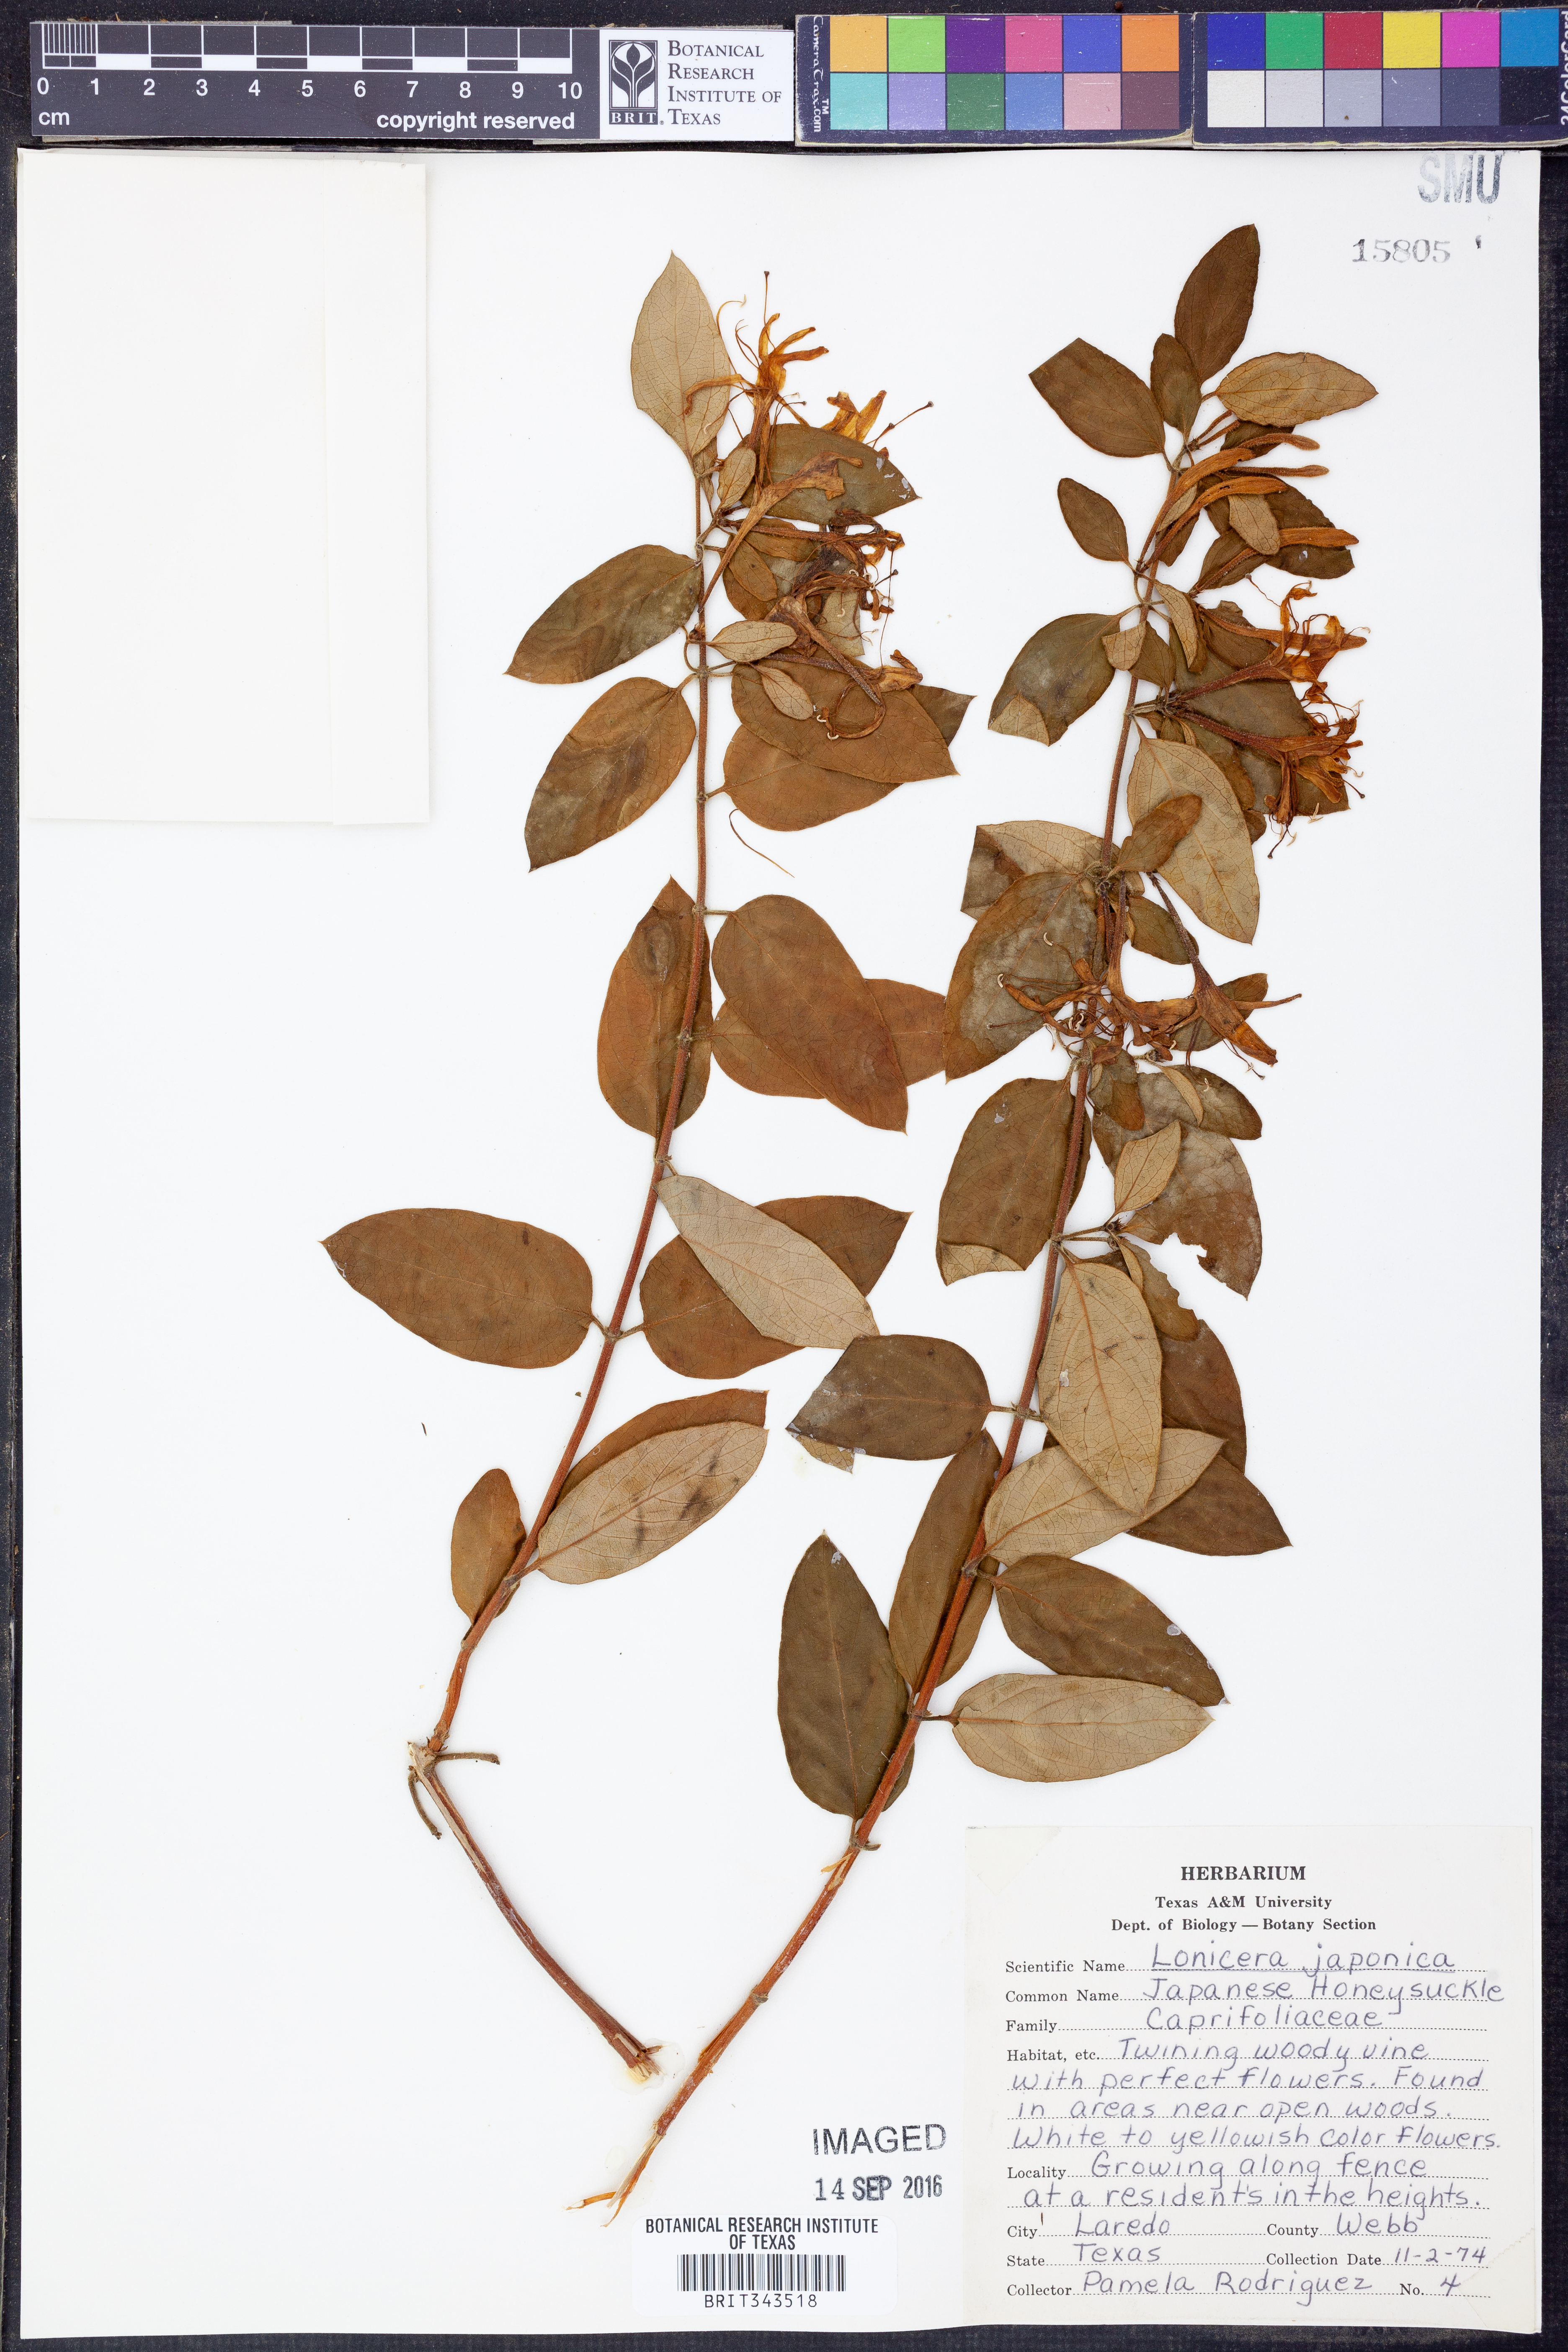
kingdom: Plantae
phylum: Tracheophyta
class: Magnoliopsida
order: Dipsacales
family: Caprifoliaceae
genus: Lonicera
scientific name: Lonicera japonica
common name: Japanese honeysuckle
